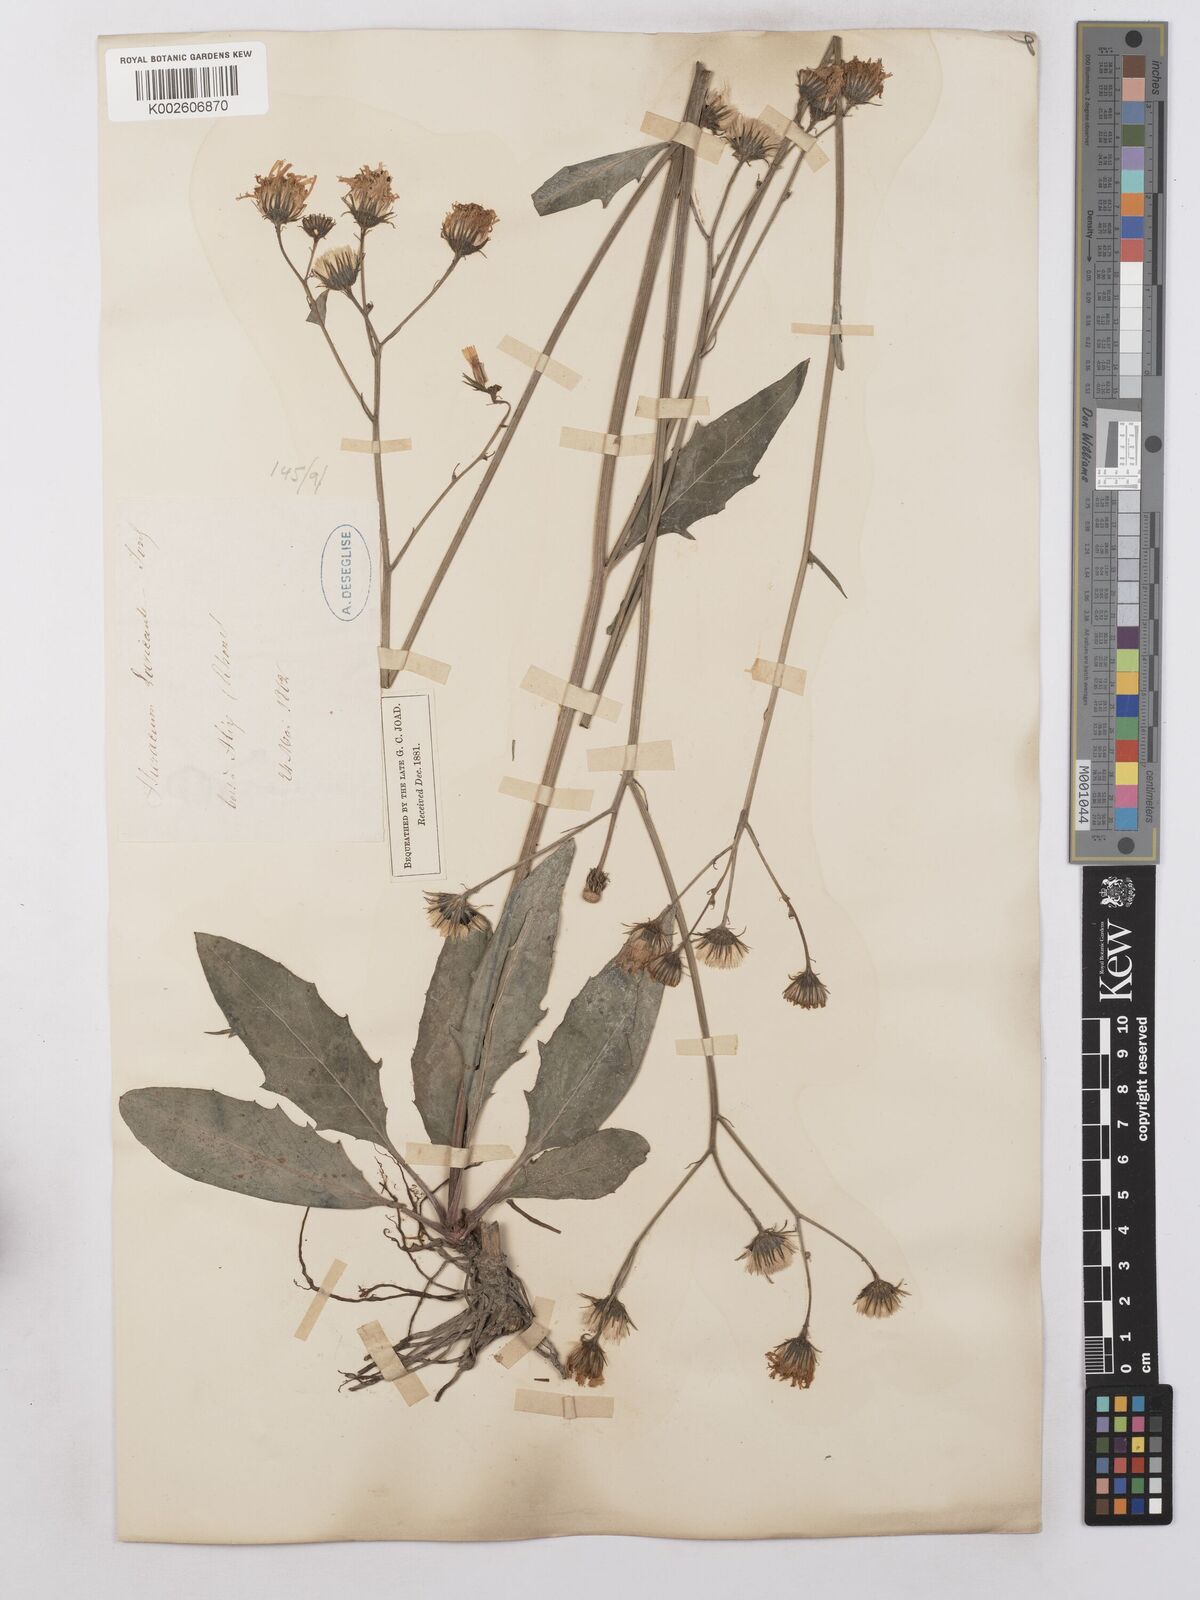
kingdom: Plantae
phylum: Tracheophyta
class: Magnoliopsida
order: Asterales
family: Asteraceae
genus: Hieracium
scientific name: Hieracium levicaule
